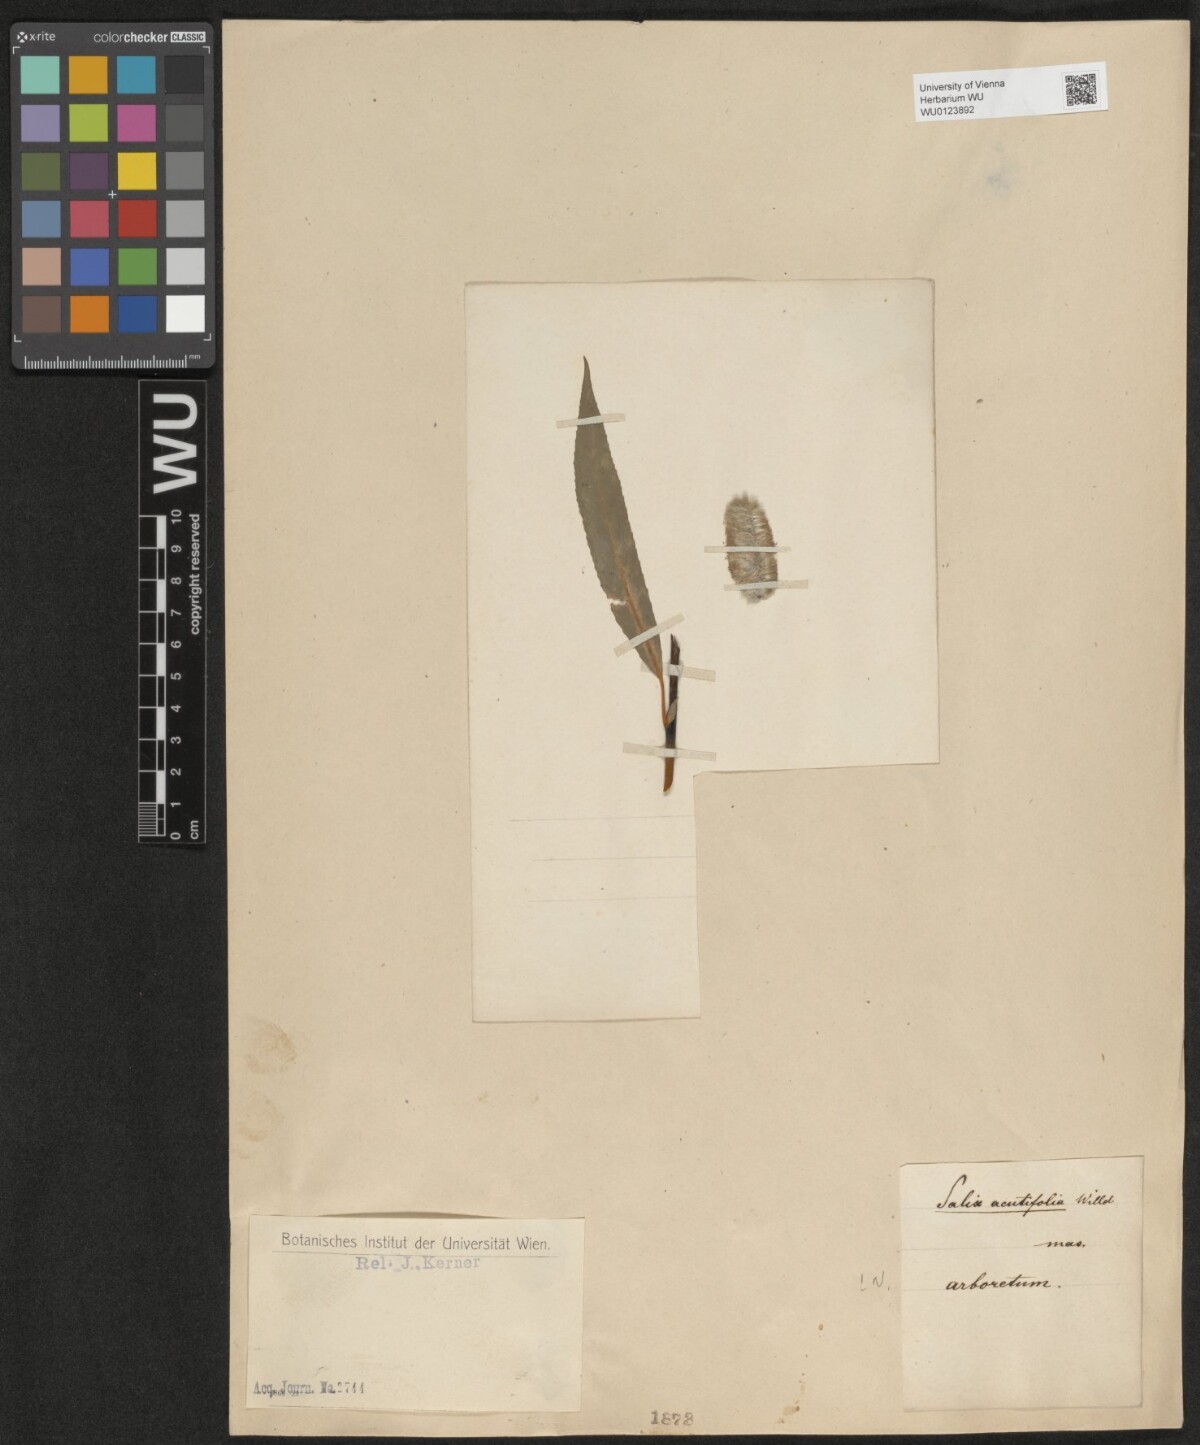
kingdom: Plantae
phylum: Tracheophyta
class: Magnoliopsida
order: Malpighiales
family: Salicaceae
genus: Salix
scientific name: Salix acutifolia
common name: Siberian violet-willow
